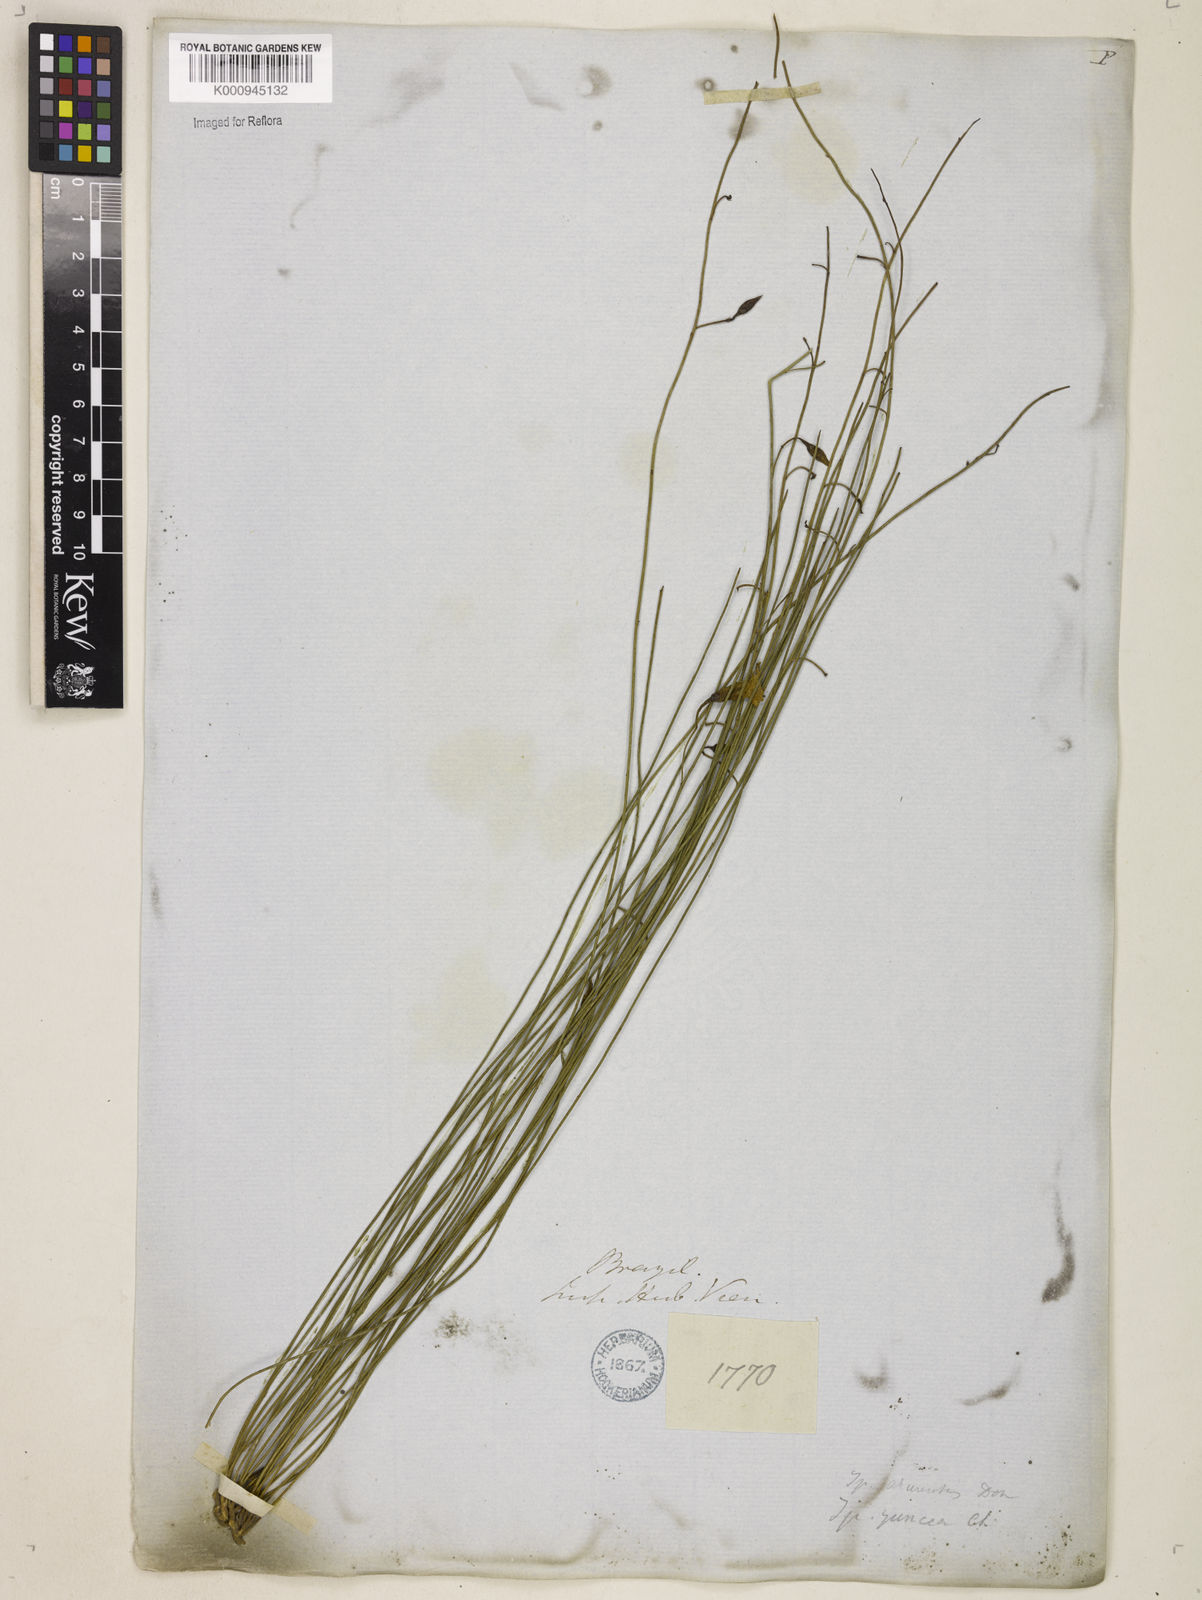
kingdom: Plantae
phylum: Tracheophyta
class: Magnoliopsida
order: Solanales
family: Convolvulaceae
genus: Distimake
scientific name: Distimake aturensis
